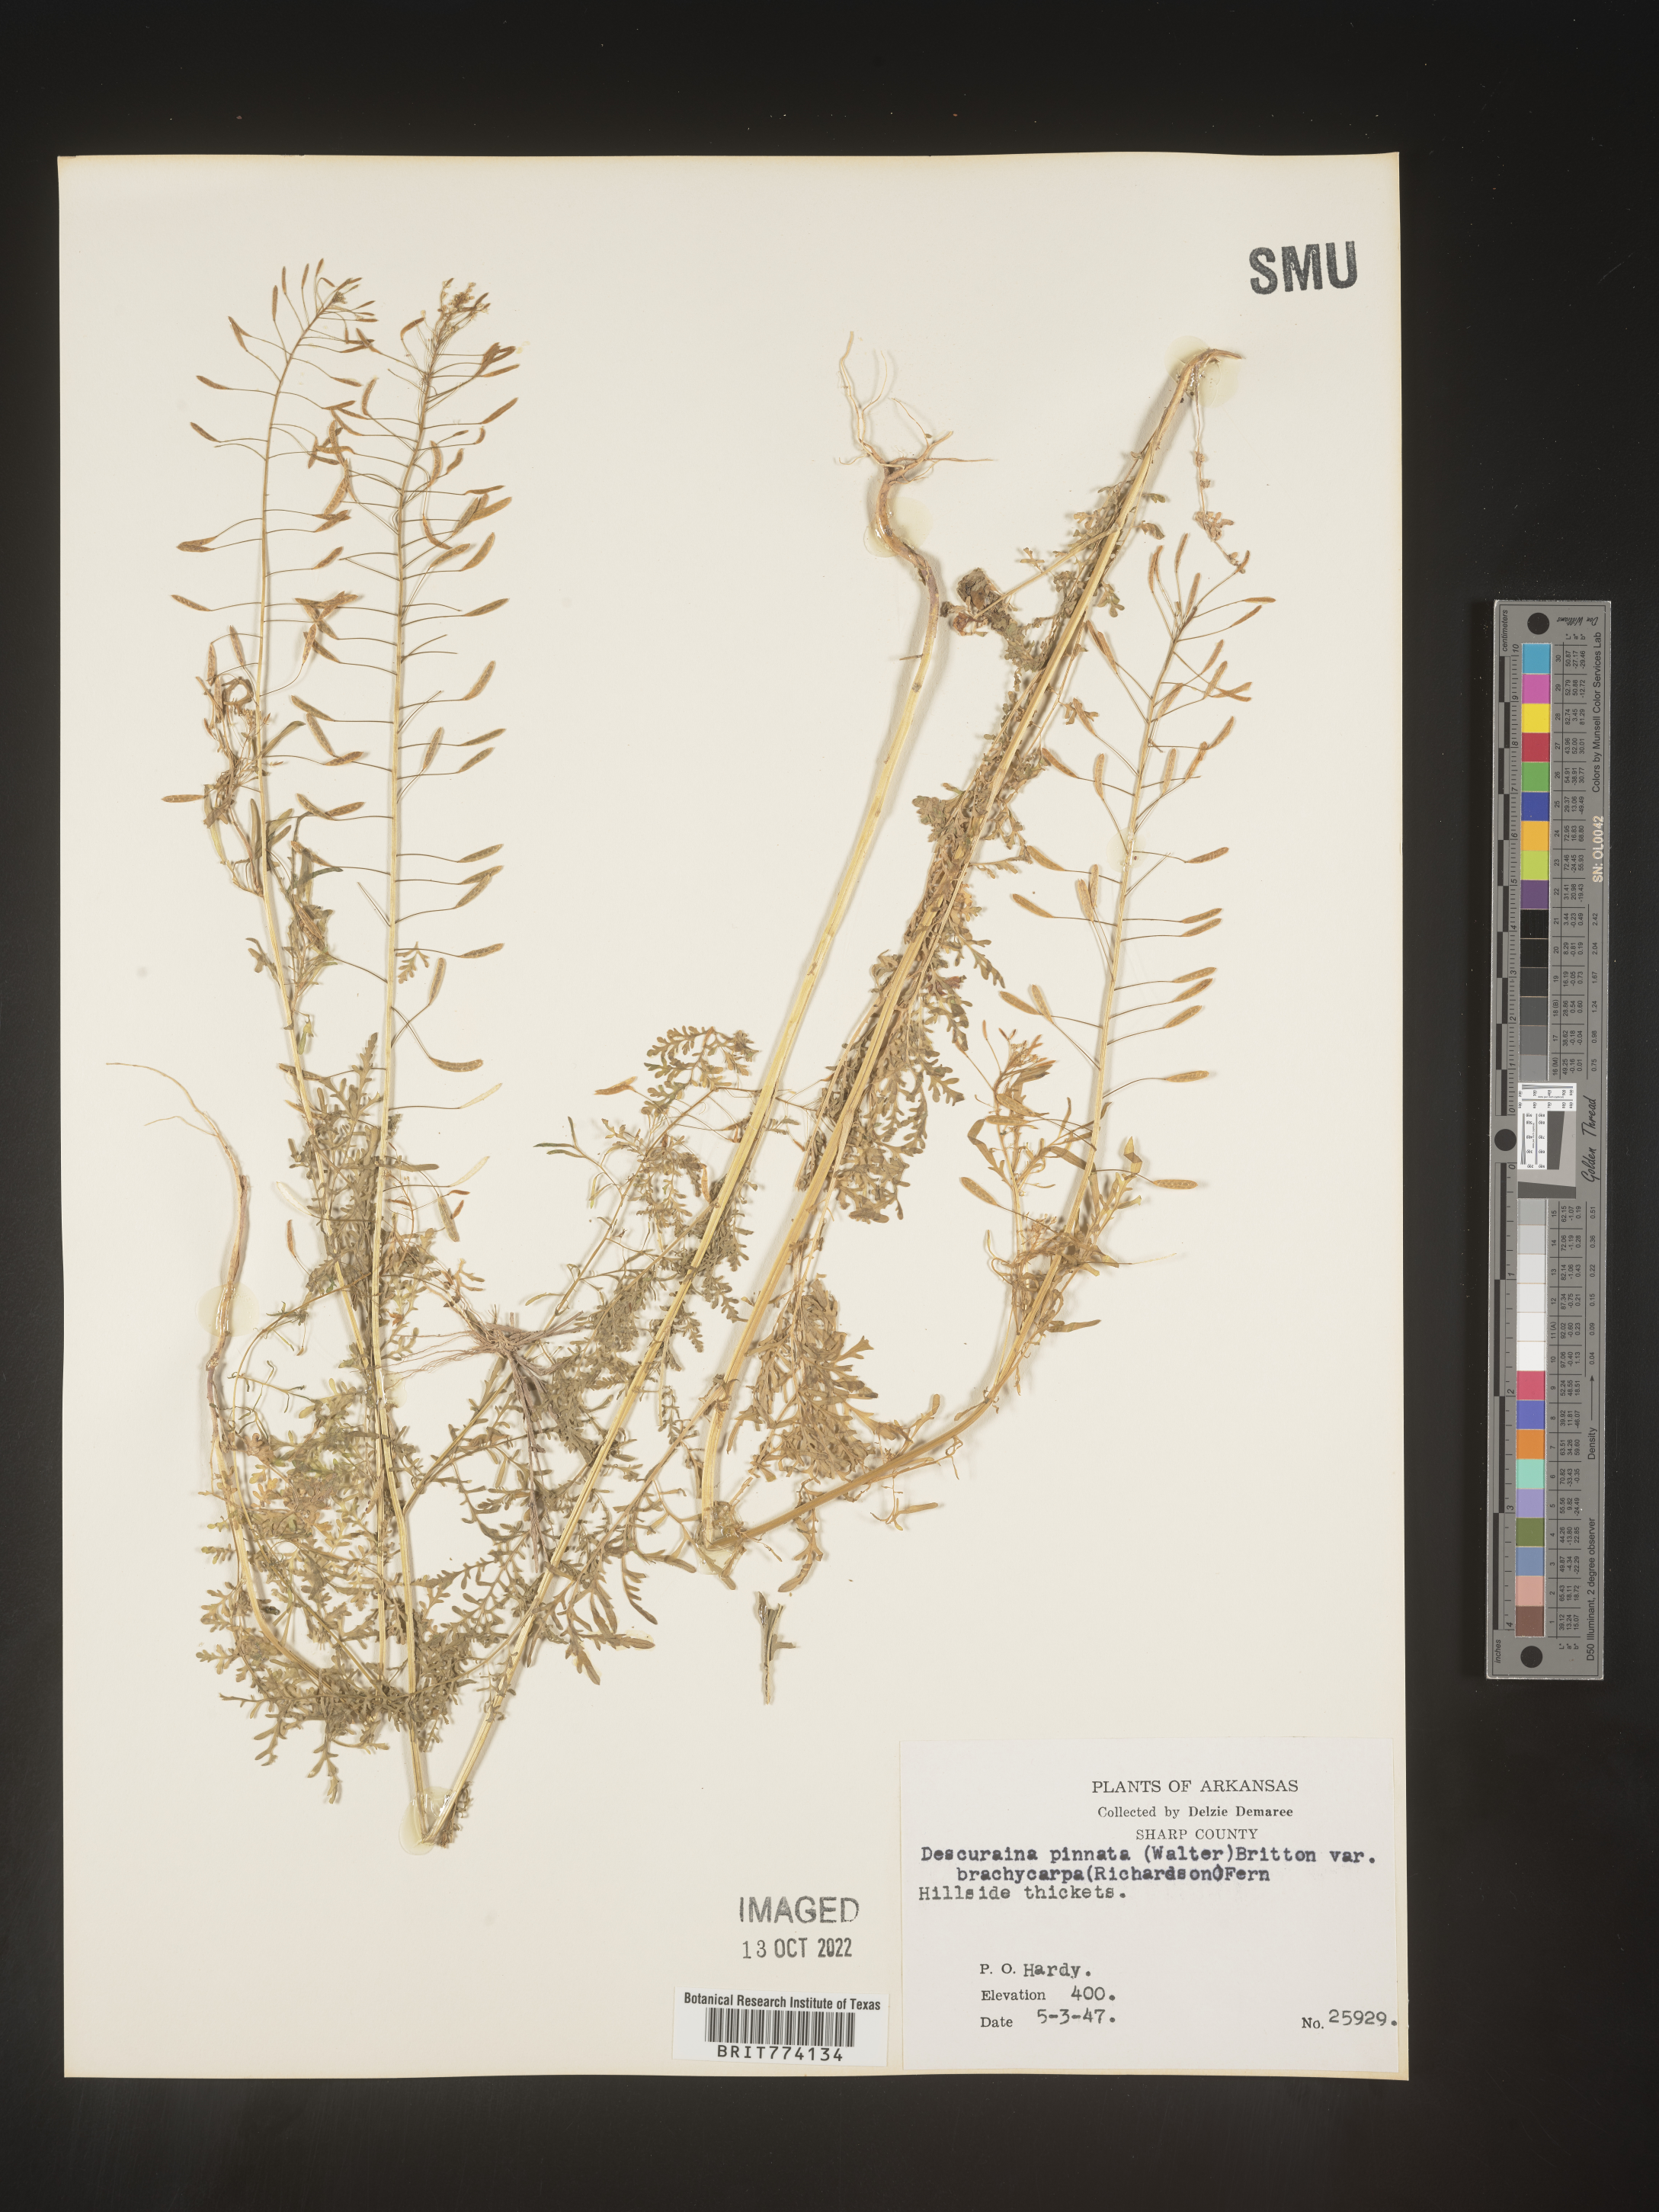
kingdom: Plantae
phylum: Tracheophyta
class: Magnoliopsida
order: Brassicales
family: Brassicaceae
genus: Descurainia
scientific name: Descurainia pinnata
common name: Western tansy mustard
